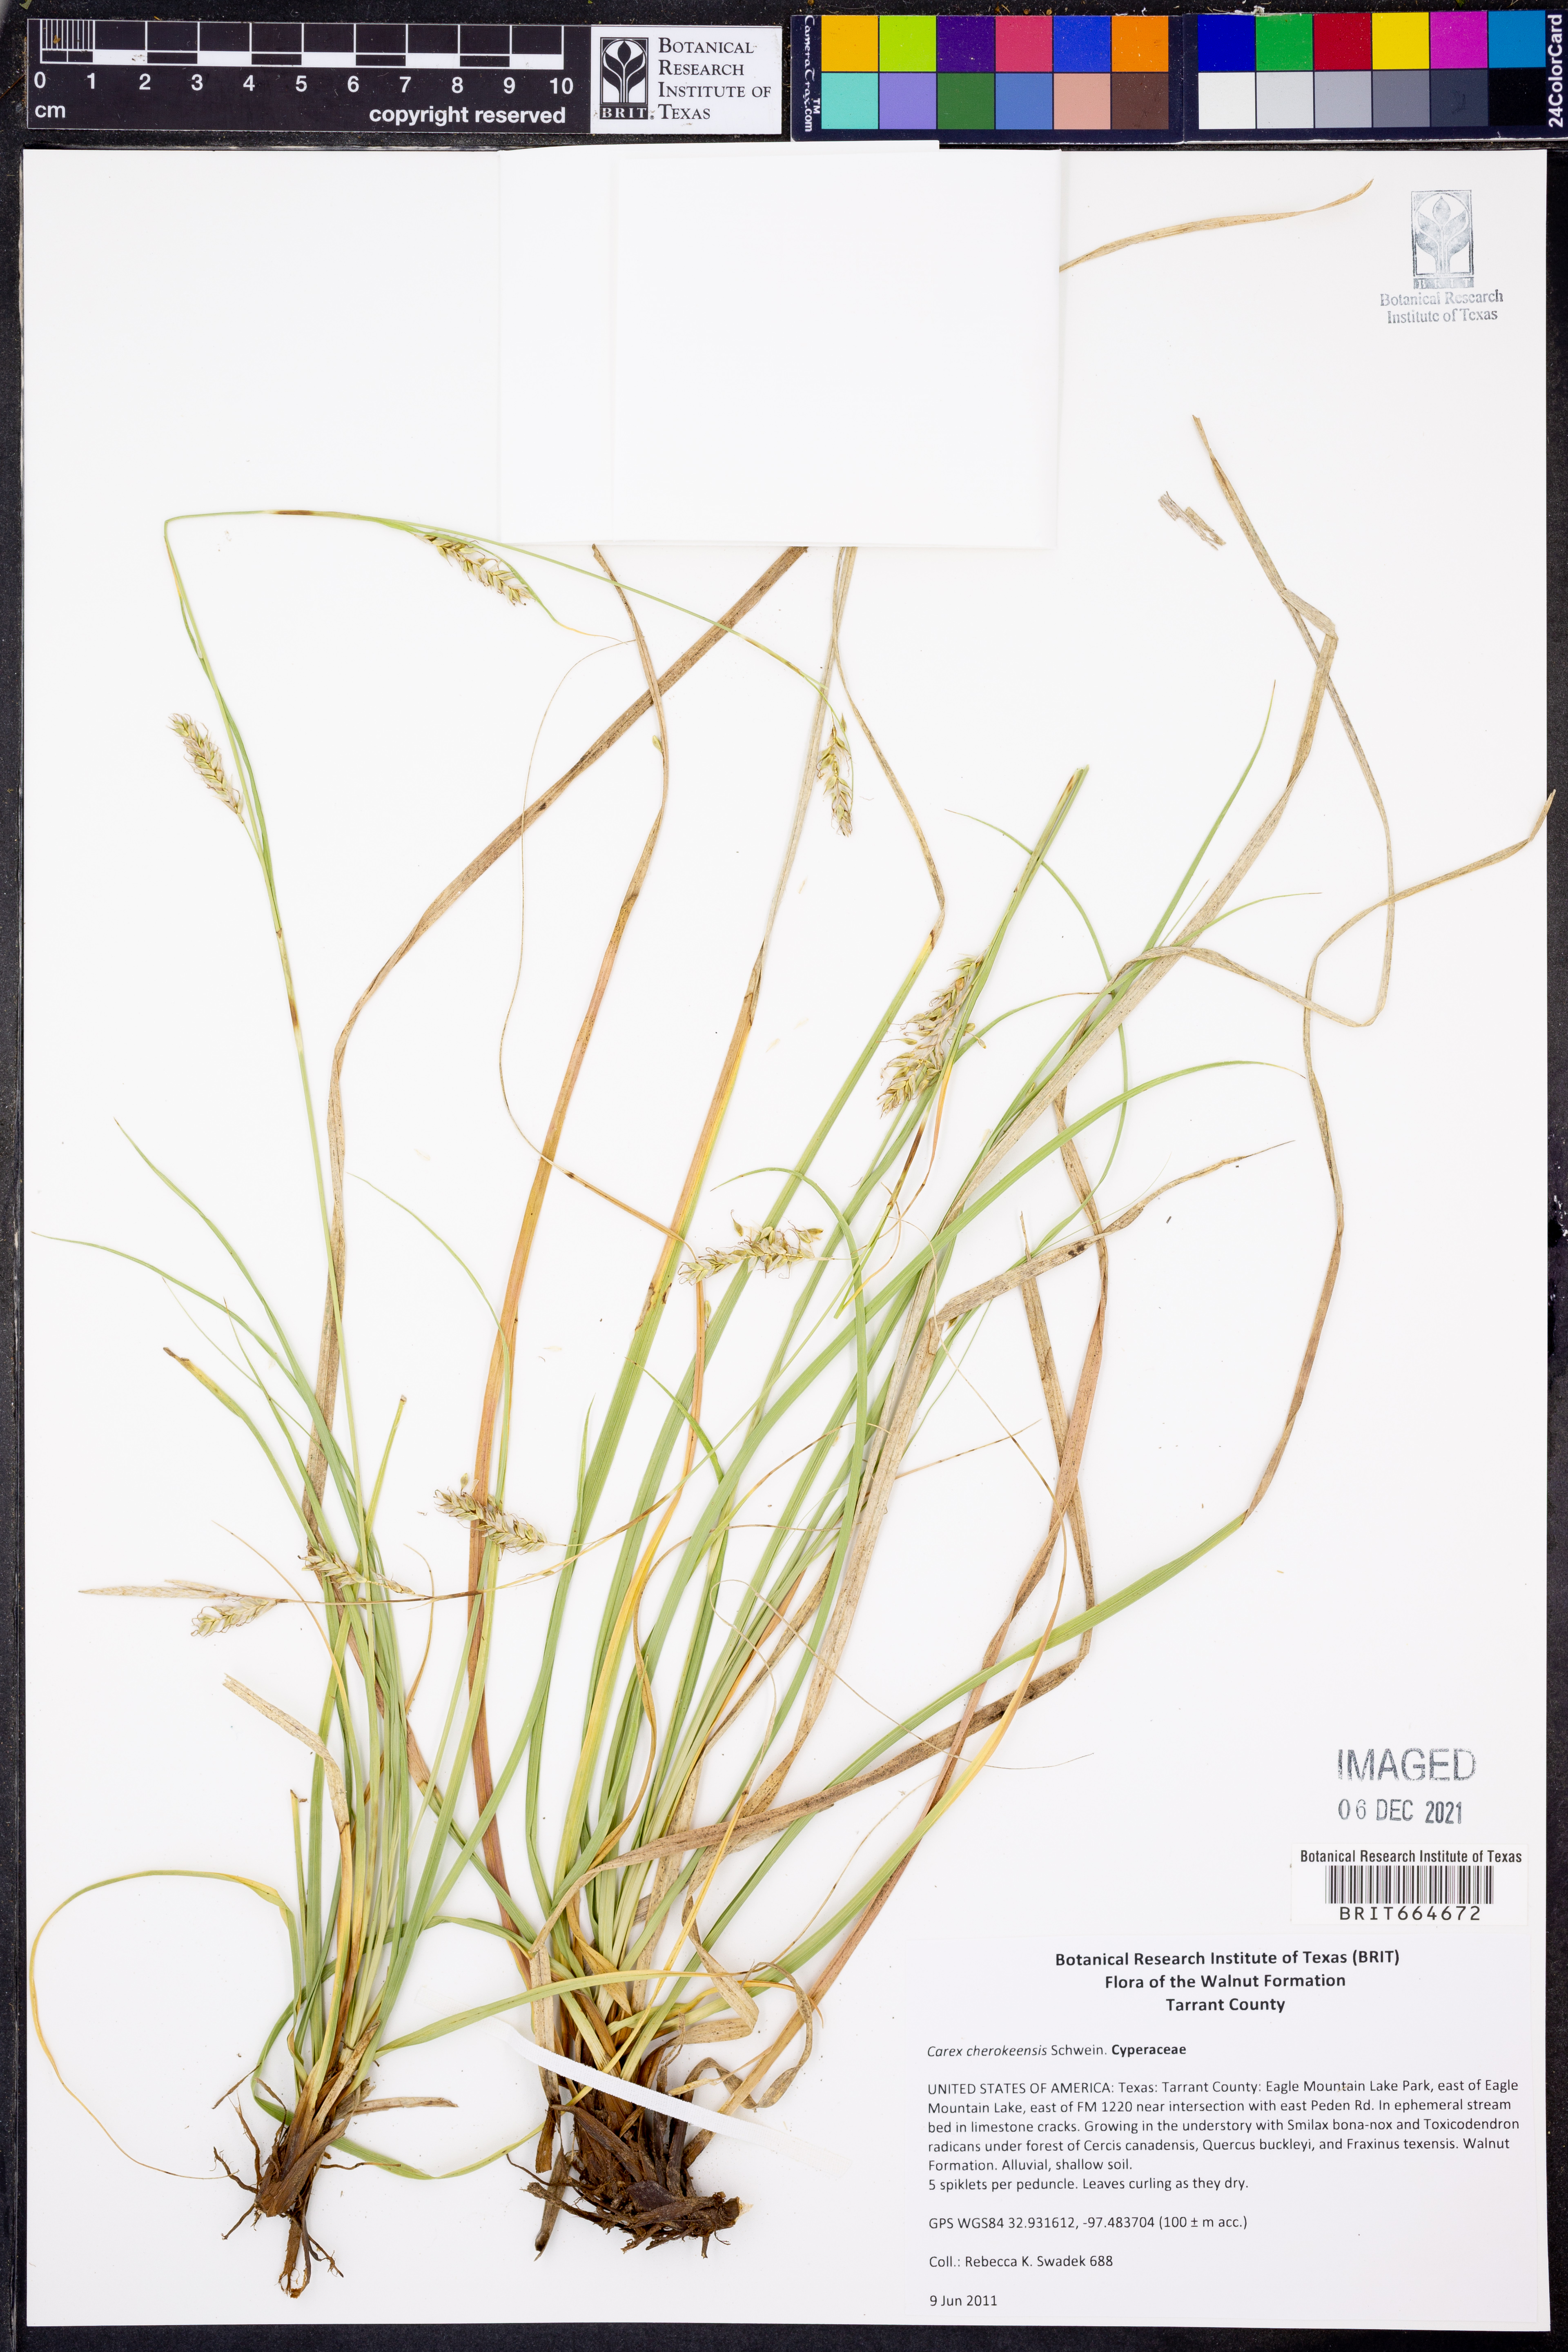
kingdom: Plantae
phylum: Tracheophyta
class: Liliopsida
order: Poales
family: Cyperaceae
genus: Carex
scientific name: Carex cherokeensis
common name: Cherokee sedge
